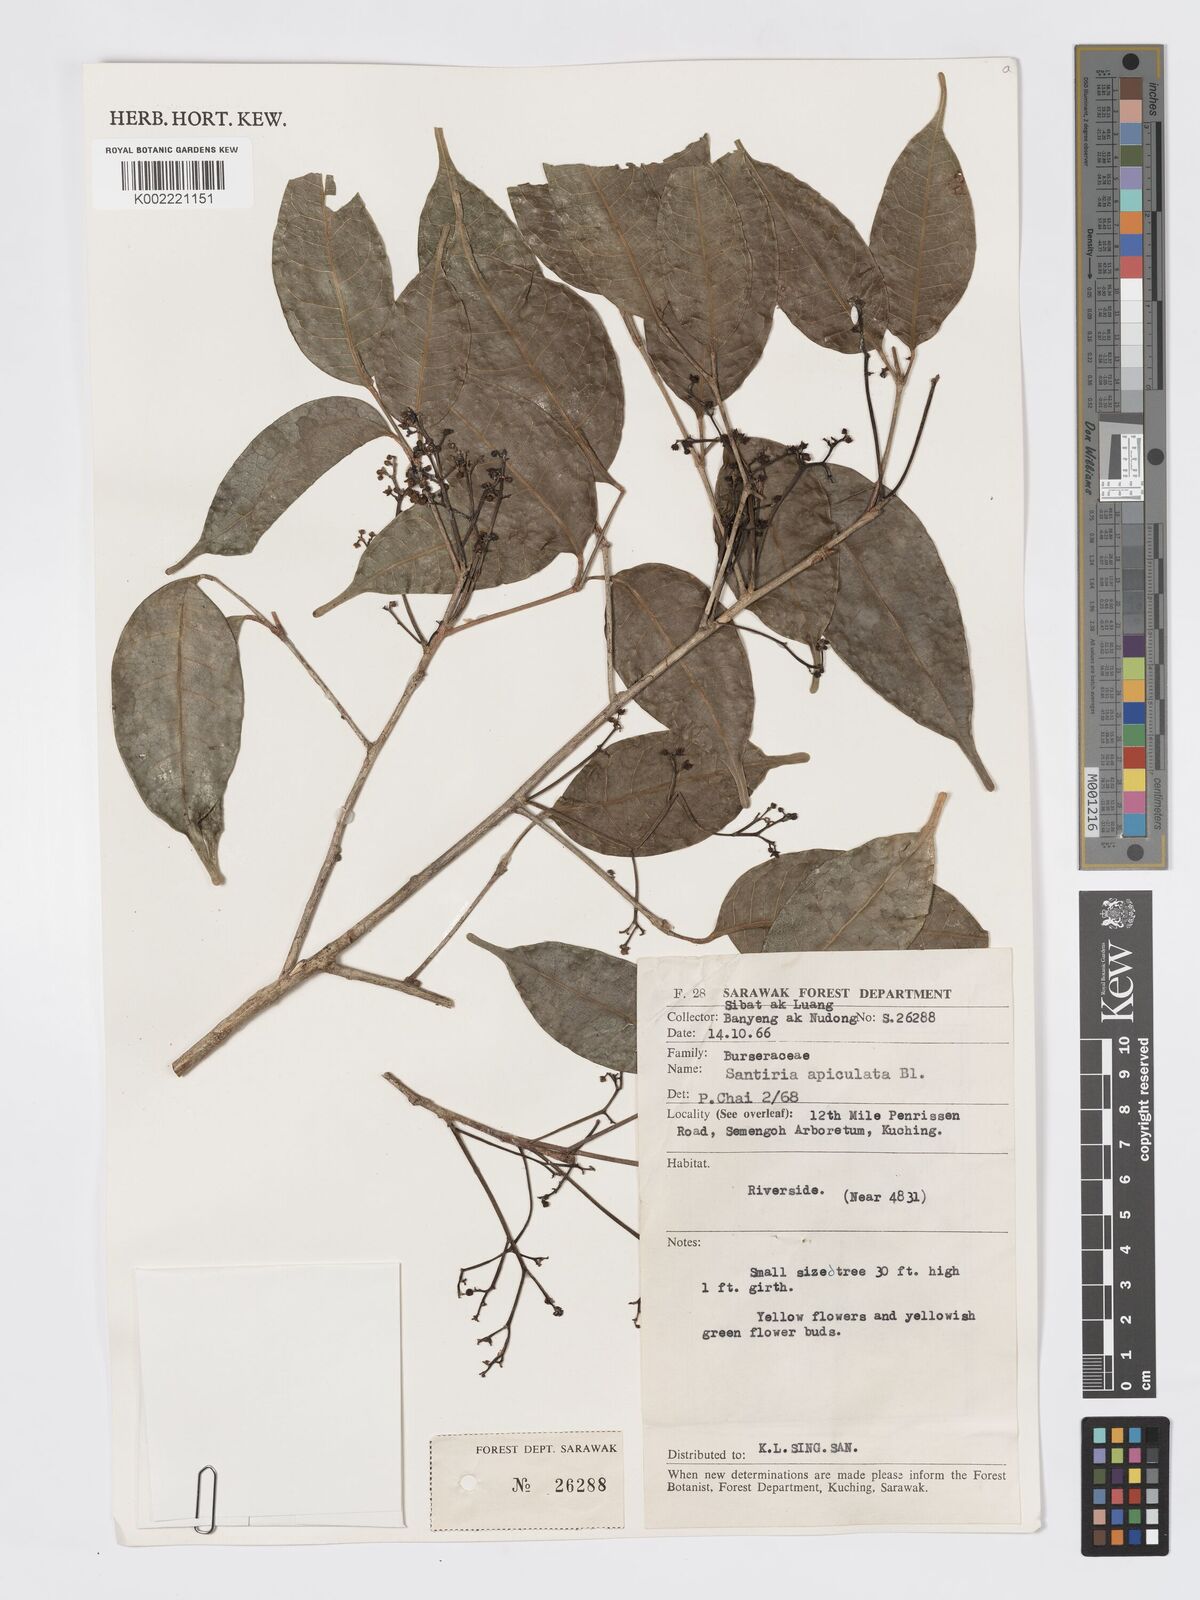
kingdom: Plantae
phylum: Tracheophyta
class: Magnoliopsida
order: Sapindales
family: Burseraceae
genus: Santiria
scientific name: Santiria apiculata
